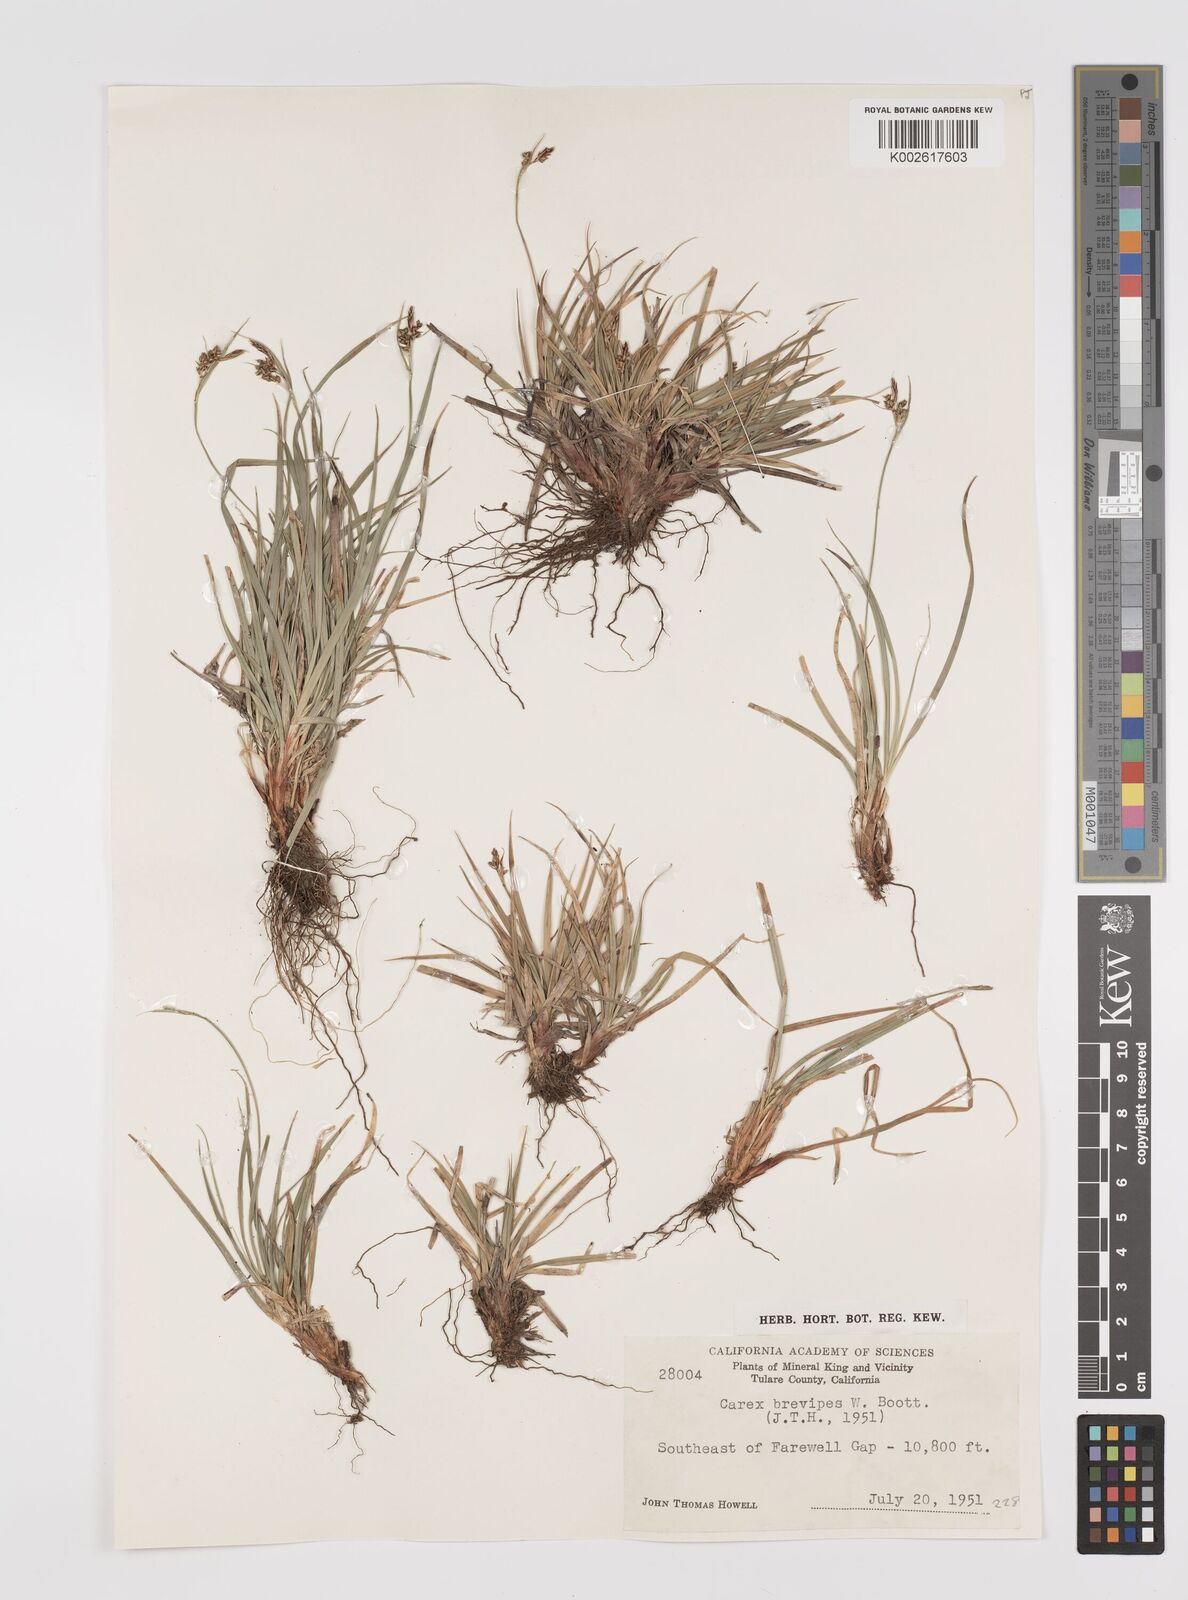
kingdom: Plantae
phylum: Tracheophyta
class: Liliopsida
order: Poales
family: Cyperaceae
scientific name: Cyperaceae
